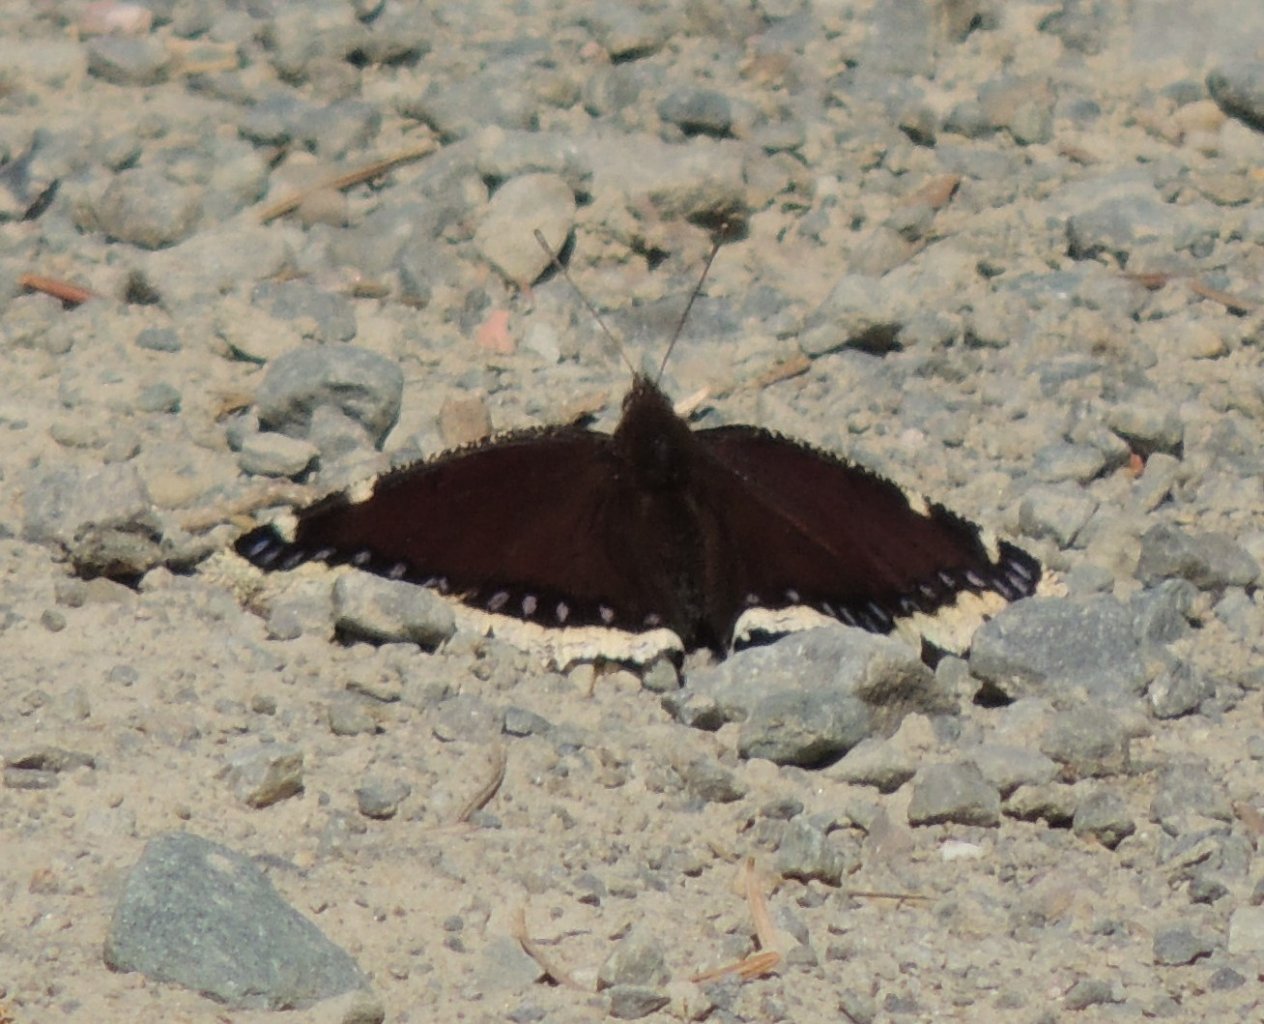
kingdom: Animalia
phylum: Arthropoda
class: Insecta
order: Lepidoptera
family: Nymphalidae
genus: Nymphalis
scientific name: Nymphalis antiopa
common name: Mourning Cloak
